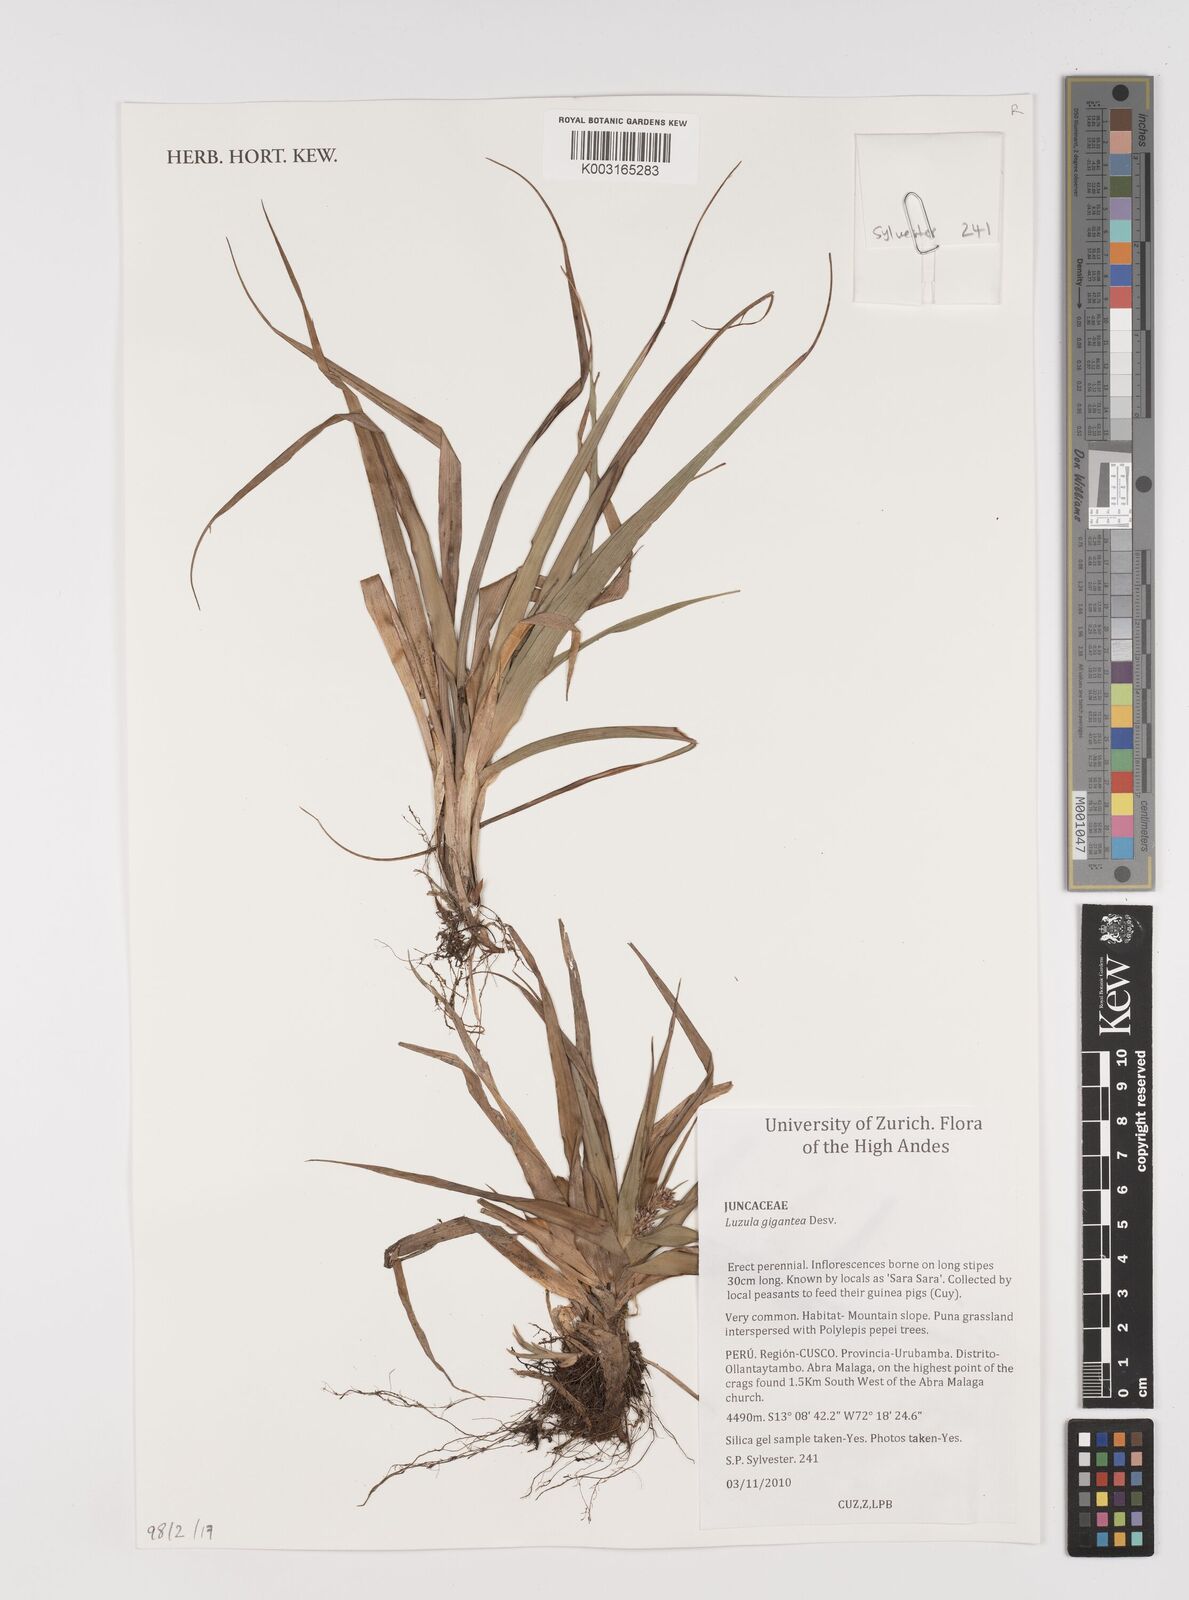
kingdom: Plantae
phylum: Tracheophyta
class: Liliopsida
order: Poales
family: Juncaceae
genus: Luzula
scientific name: Luzula gigantea
